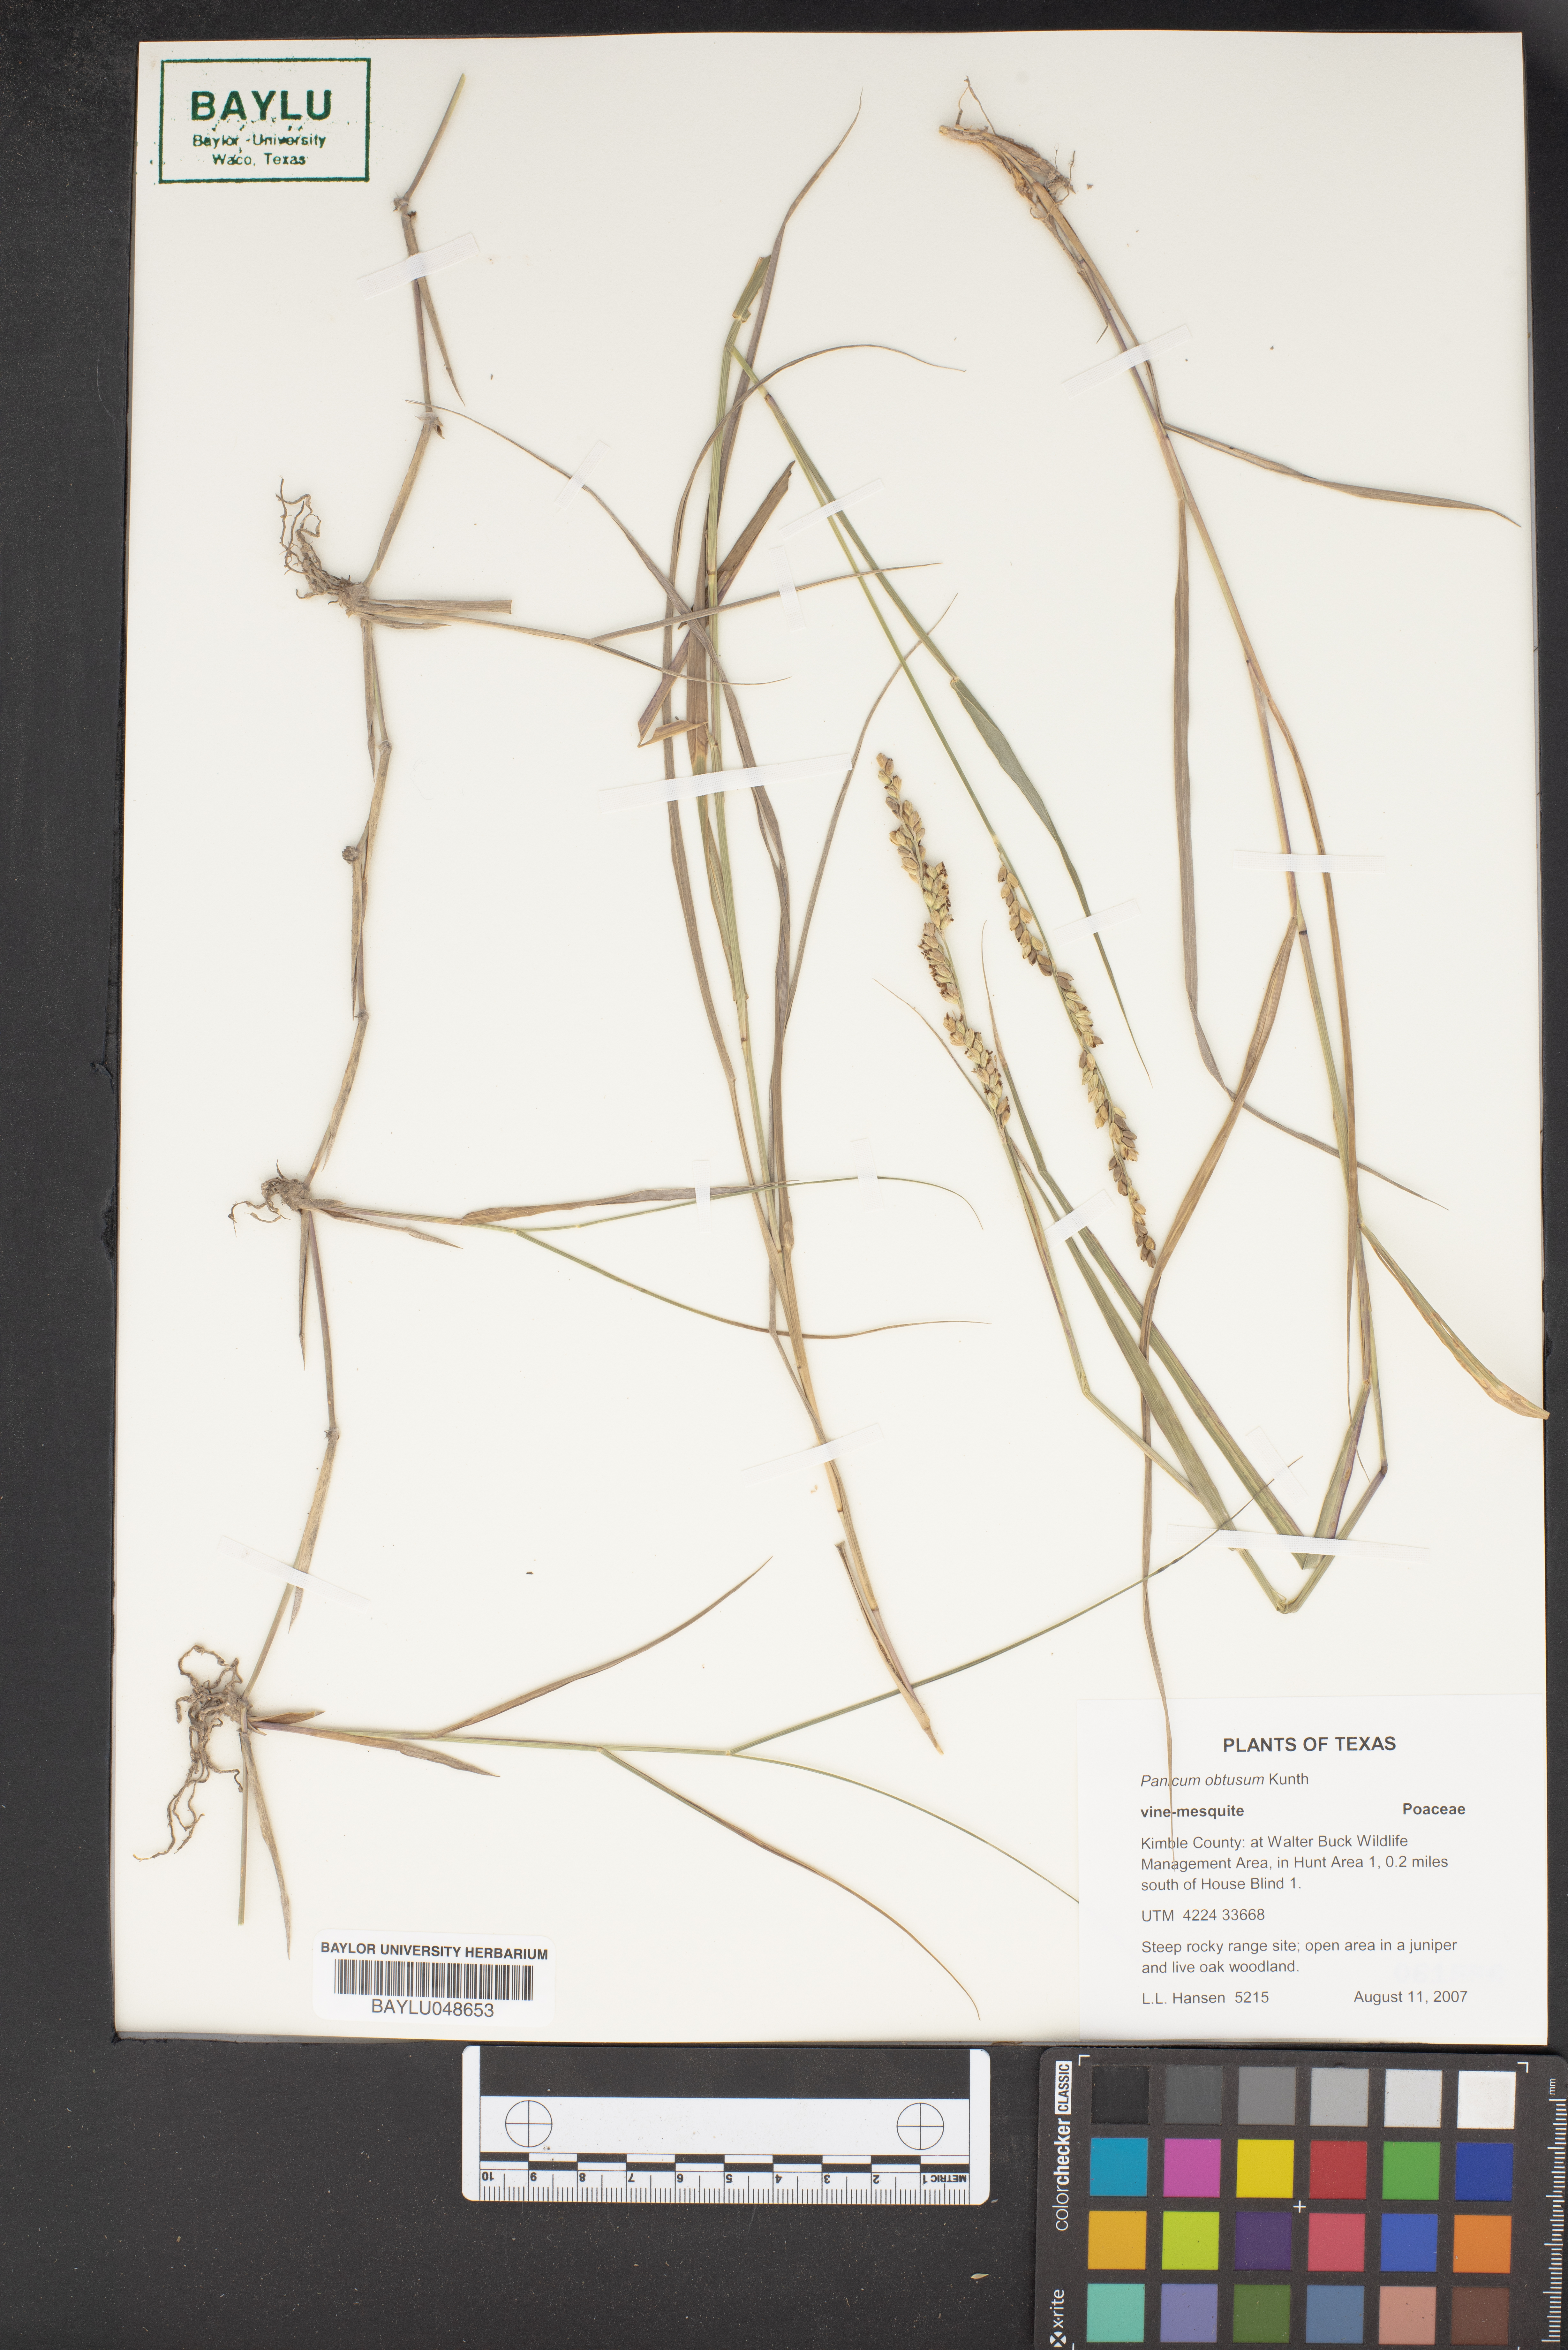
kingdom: Plantae
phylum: Tracheophyta
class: Liliopsida
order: Poales
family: Poaceae
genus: Hopia
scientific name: Hopia obtusa
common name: Vine-mesquite
